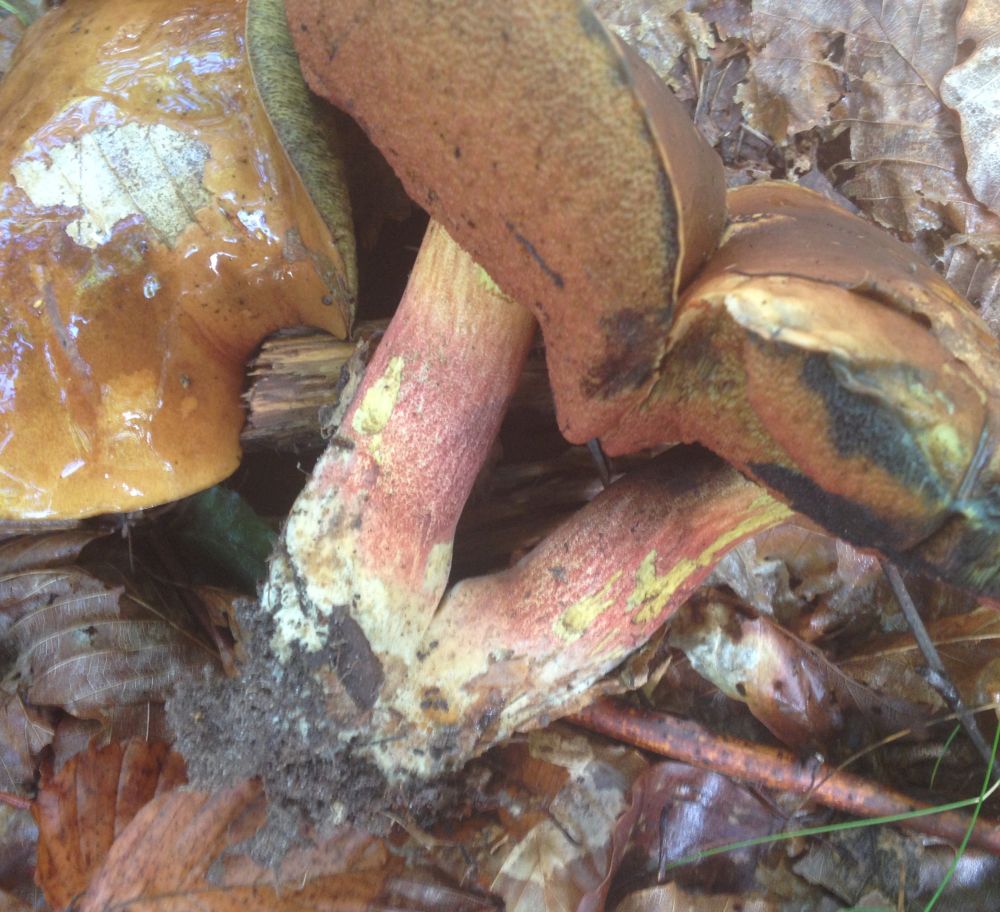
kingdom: Fungi
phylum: Basidiomycota
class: Agaricomycetes
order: Boletales
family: Boletaceae
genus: Neoboletus
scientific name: Neoboletus erythropus
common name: punktstokket indigorørhat
